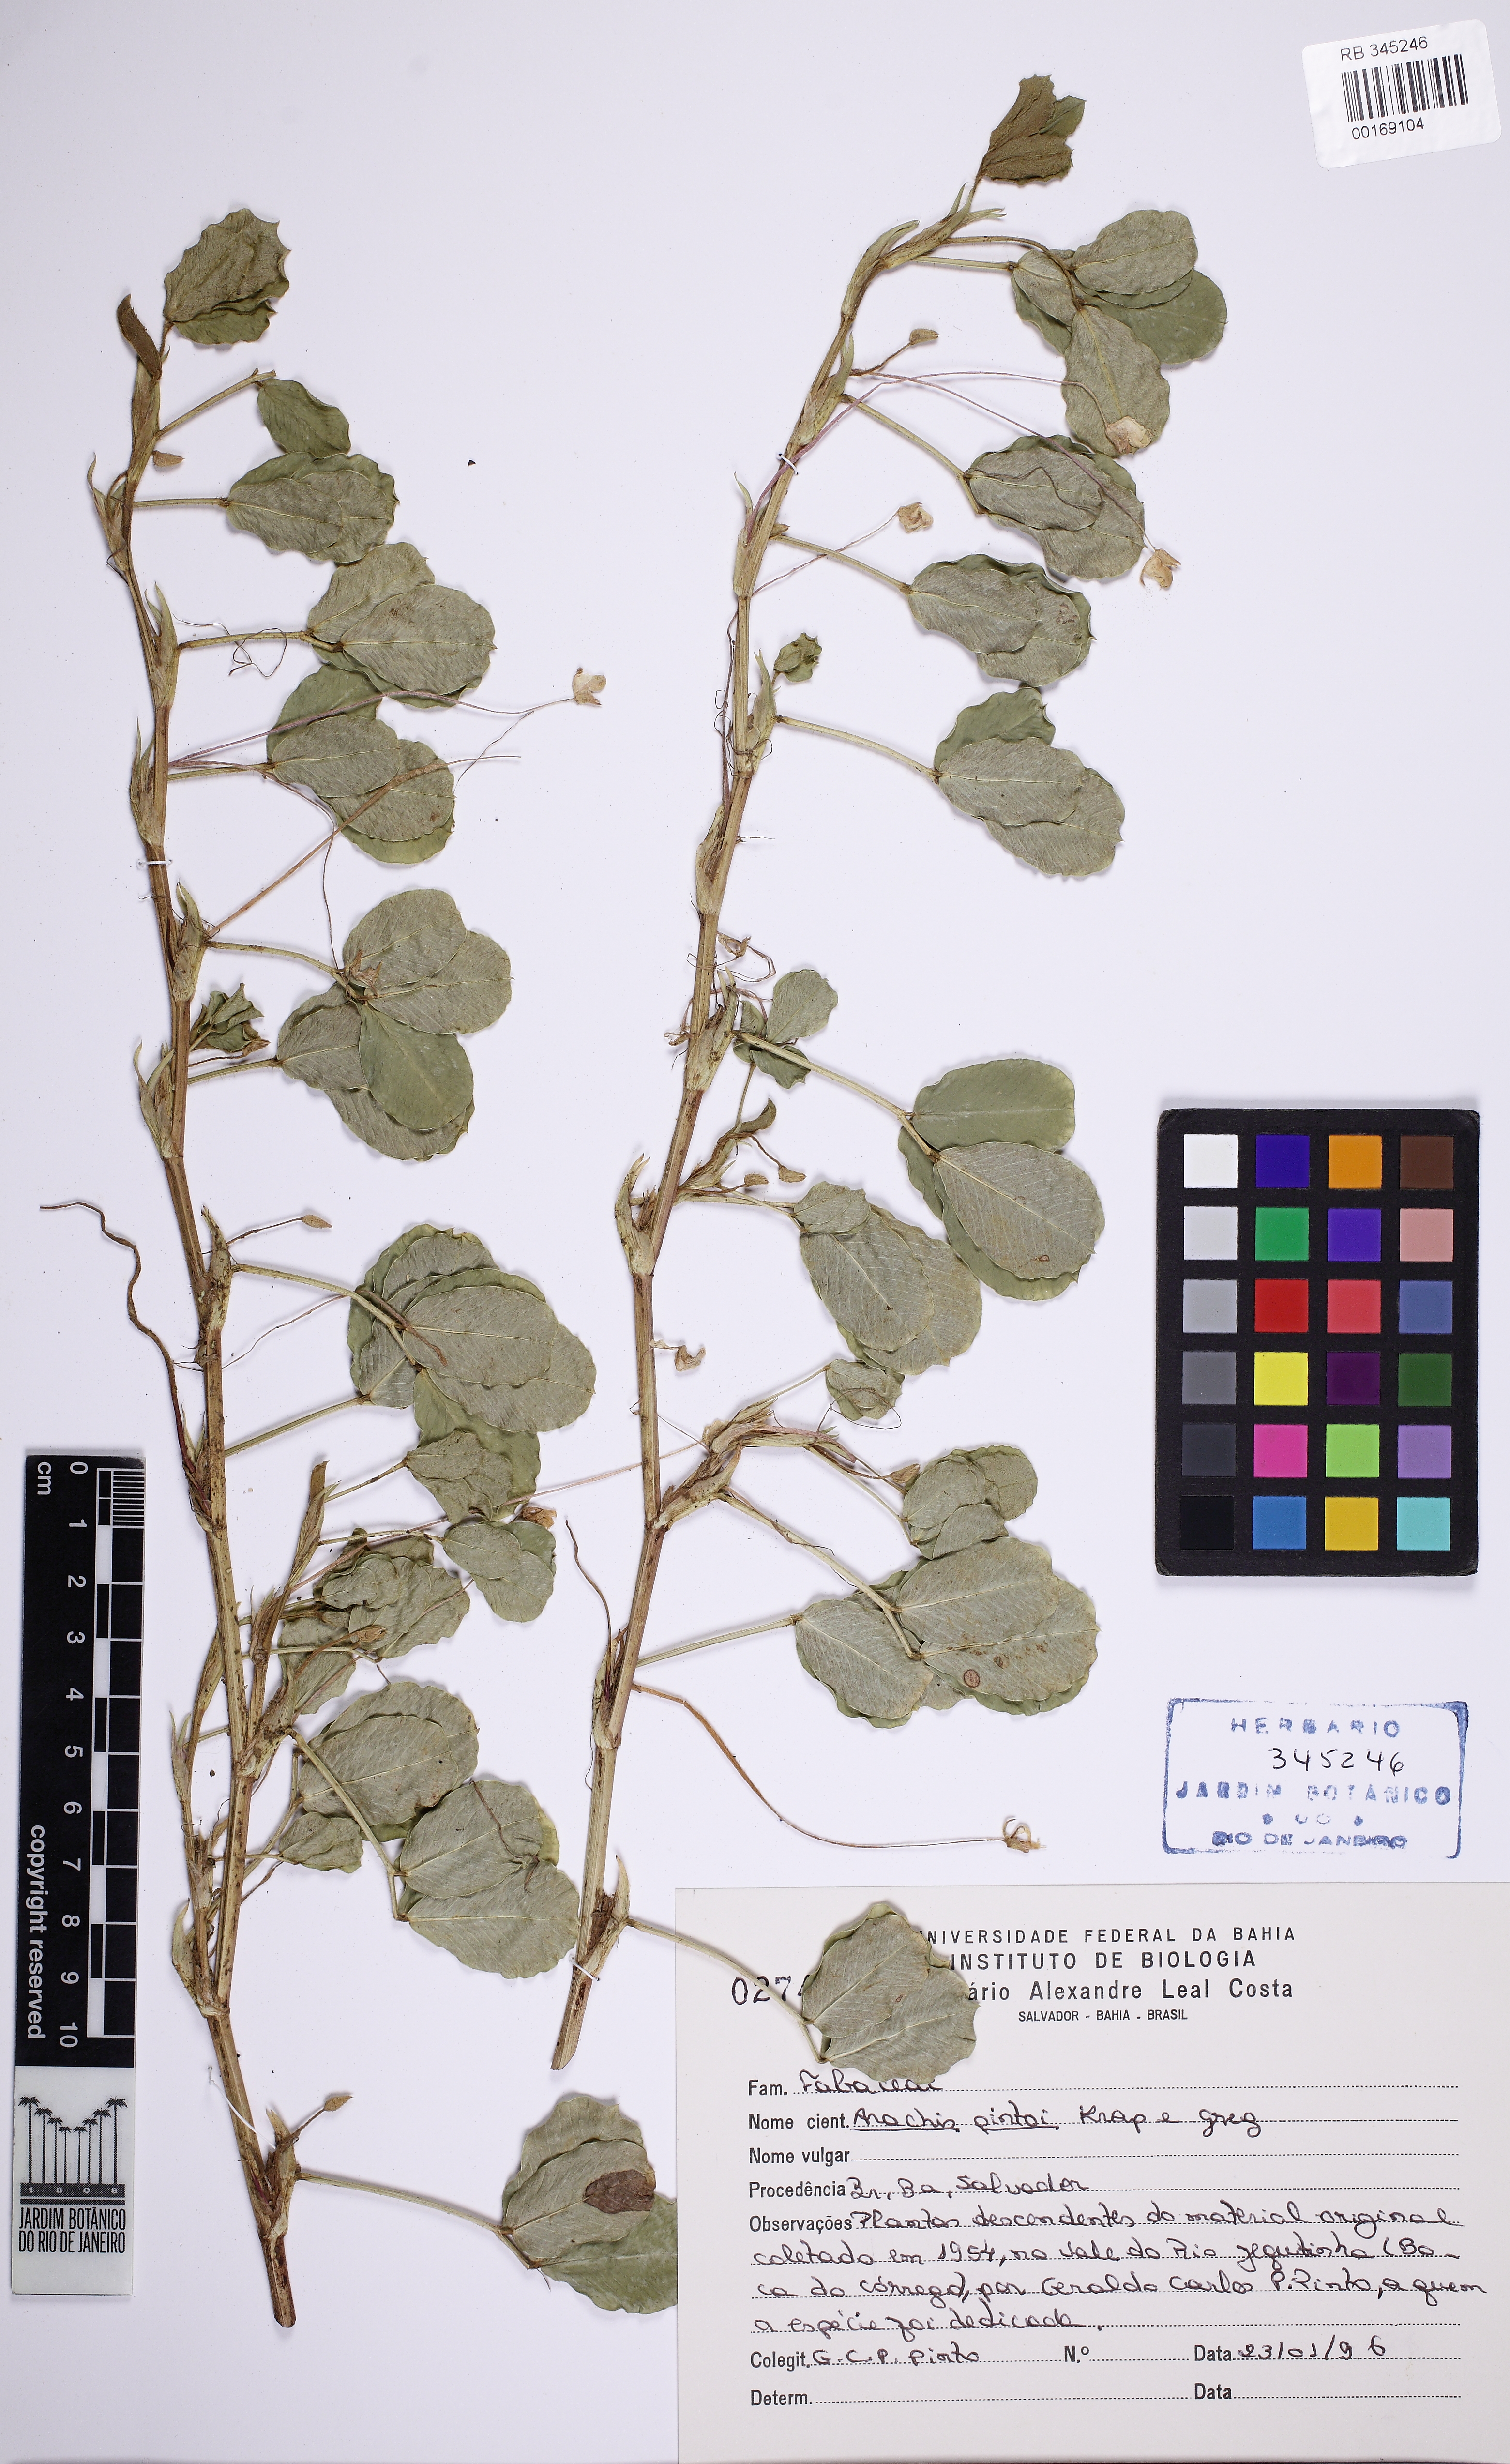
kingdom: Plantae
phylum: Tracheophyta
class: Magnoliopsida
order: Fabales
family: Fabaceae
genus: Arachis
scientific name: Arachis pintoi
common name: Pinto peanut
